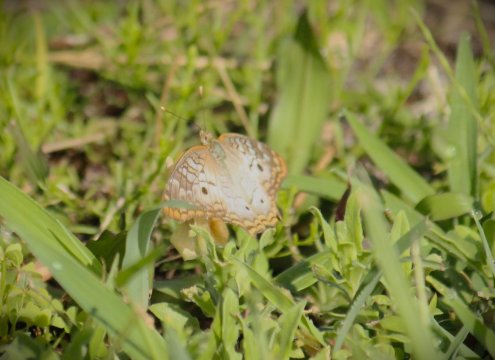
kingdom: Animalia
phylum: Arthropoda
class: Insecta
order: Lepidoptera
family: Nymphalidae
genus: Anartia
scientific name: Anartia jatrophae
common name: White Peacock
